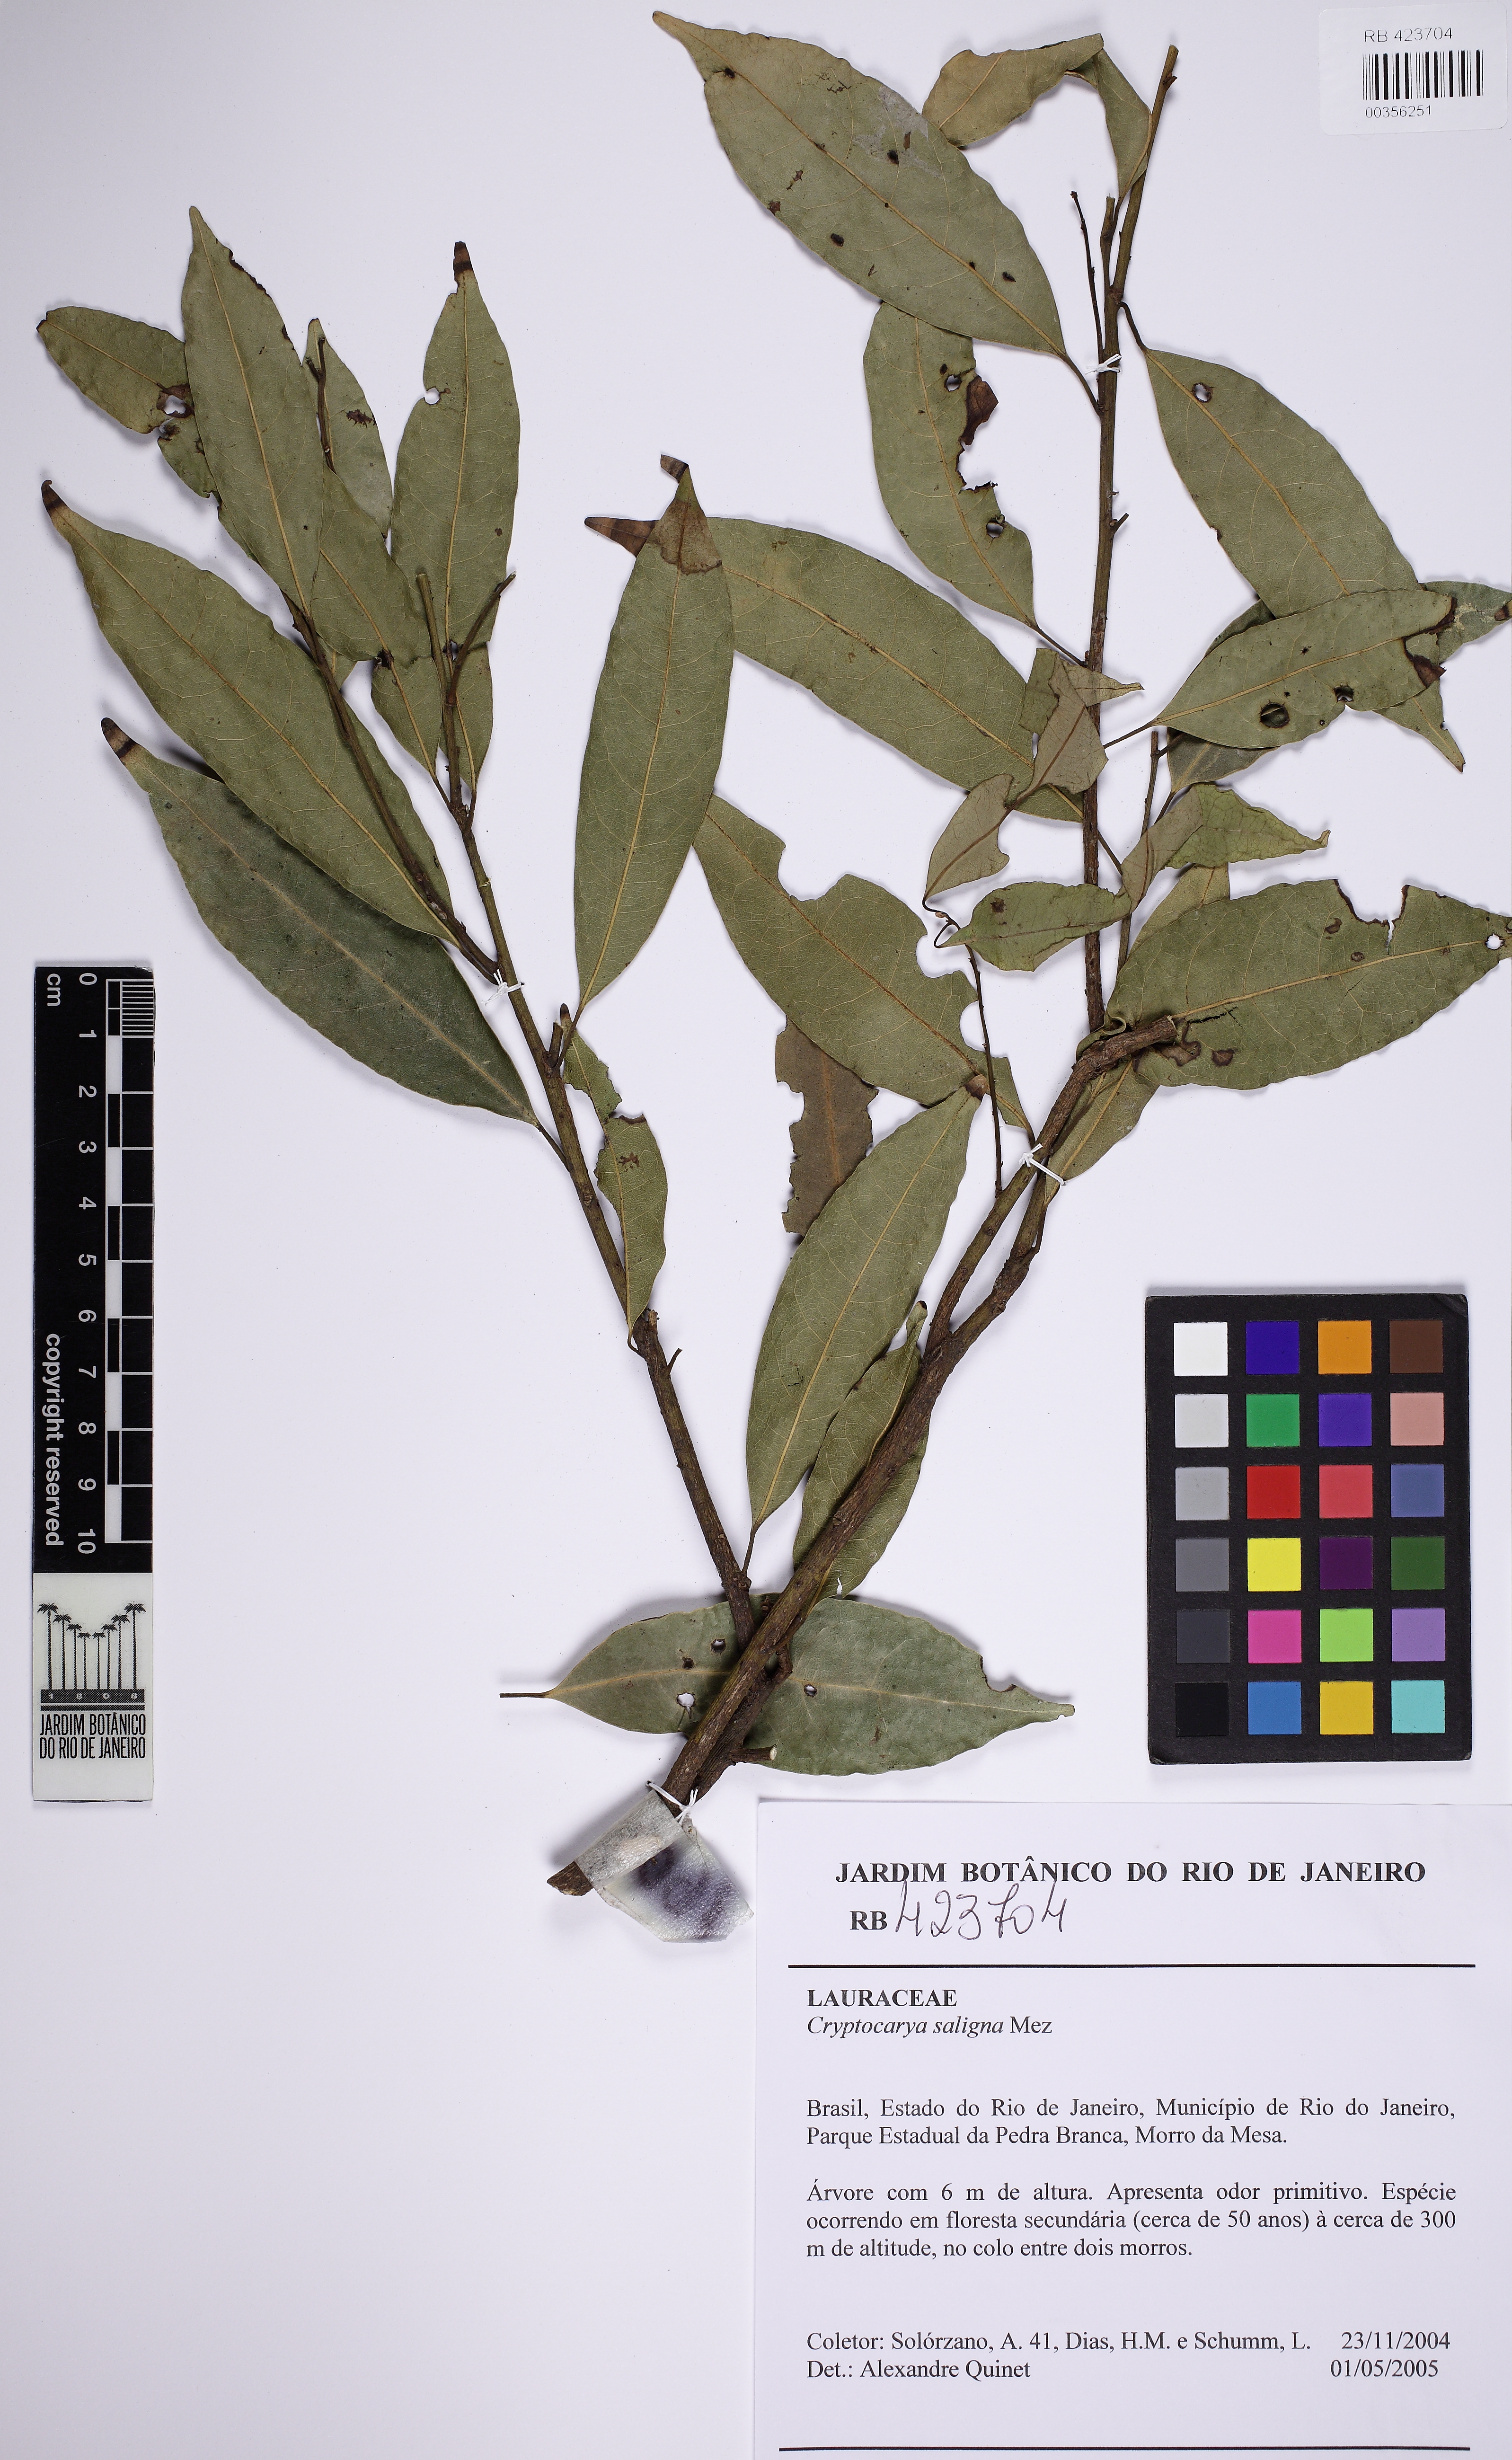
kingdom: Plantae
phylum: Tracheophyta
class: Magnoliopsida
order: Laurales
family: Lauraceae
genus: Cryptocarya
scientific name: Cryptocarya saligna
